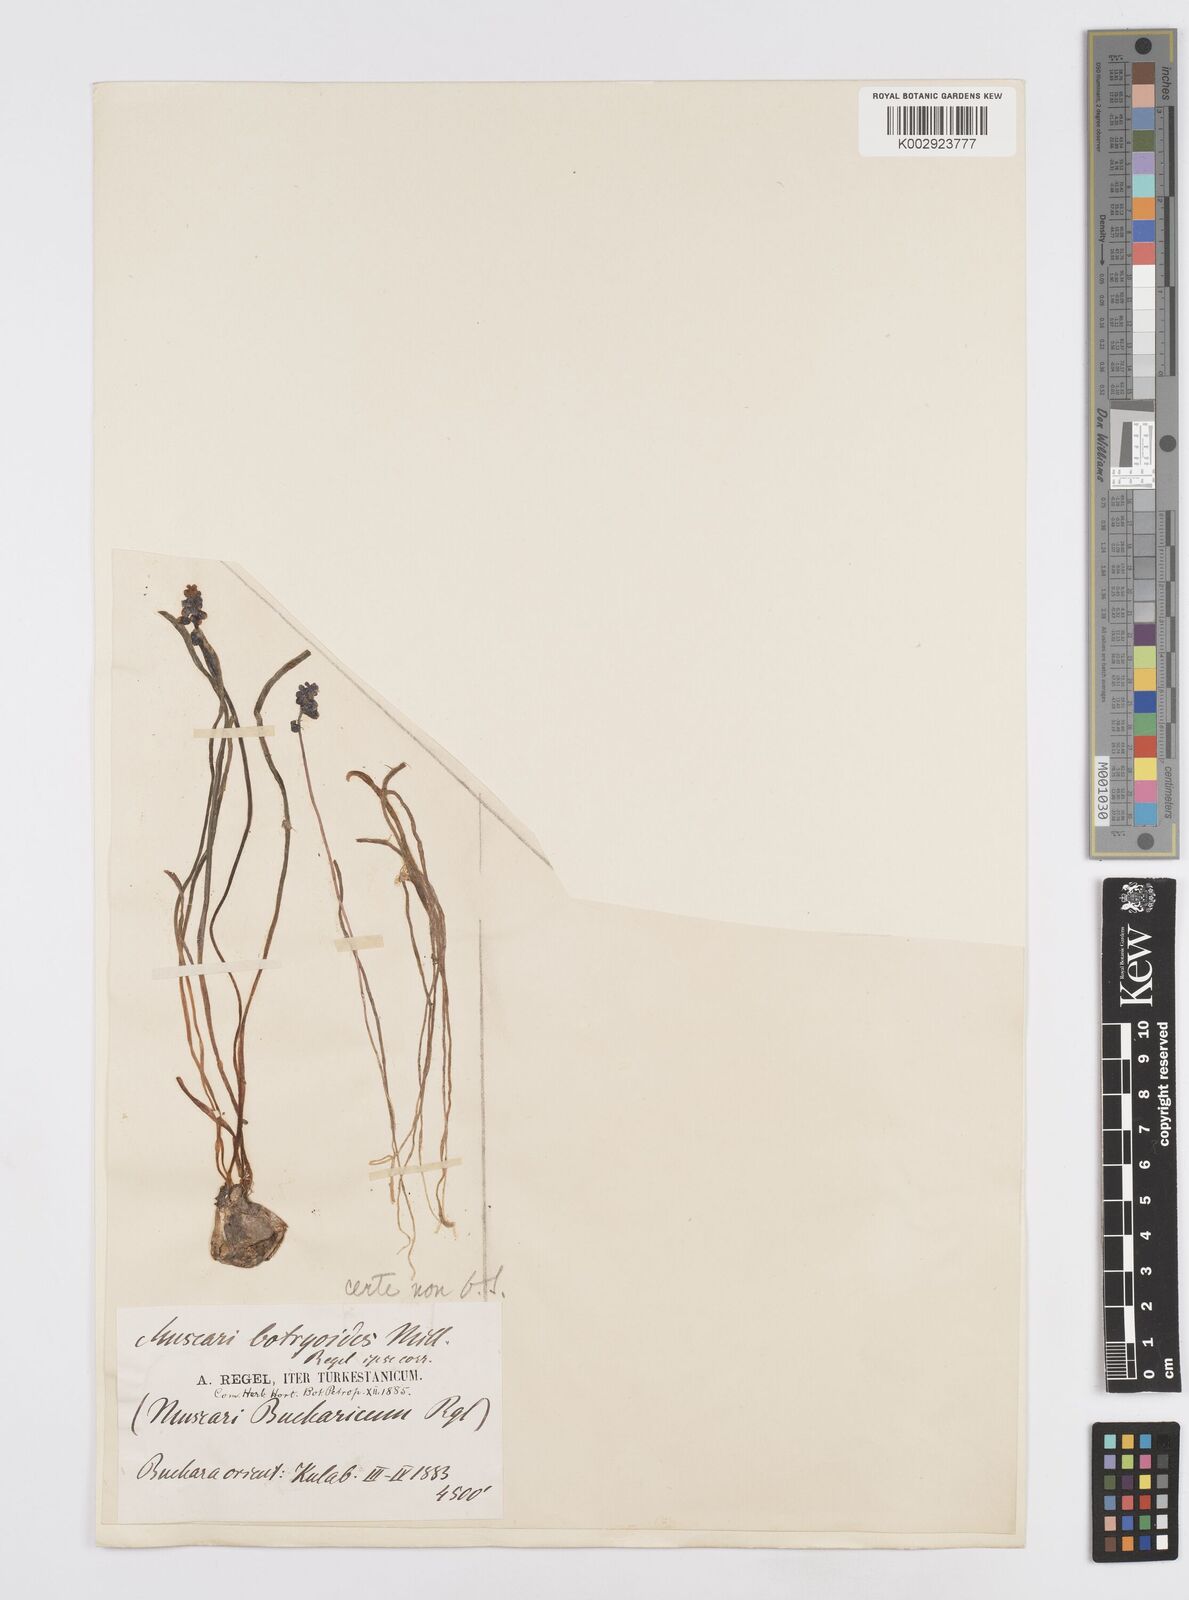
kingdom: Plantae
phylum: Tracheophyta
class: Liliopsida
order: Asparagales
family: Asparagaceae
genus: Muscari
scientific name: Muscari
